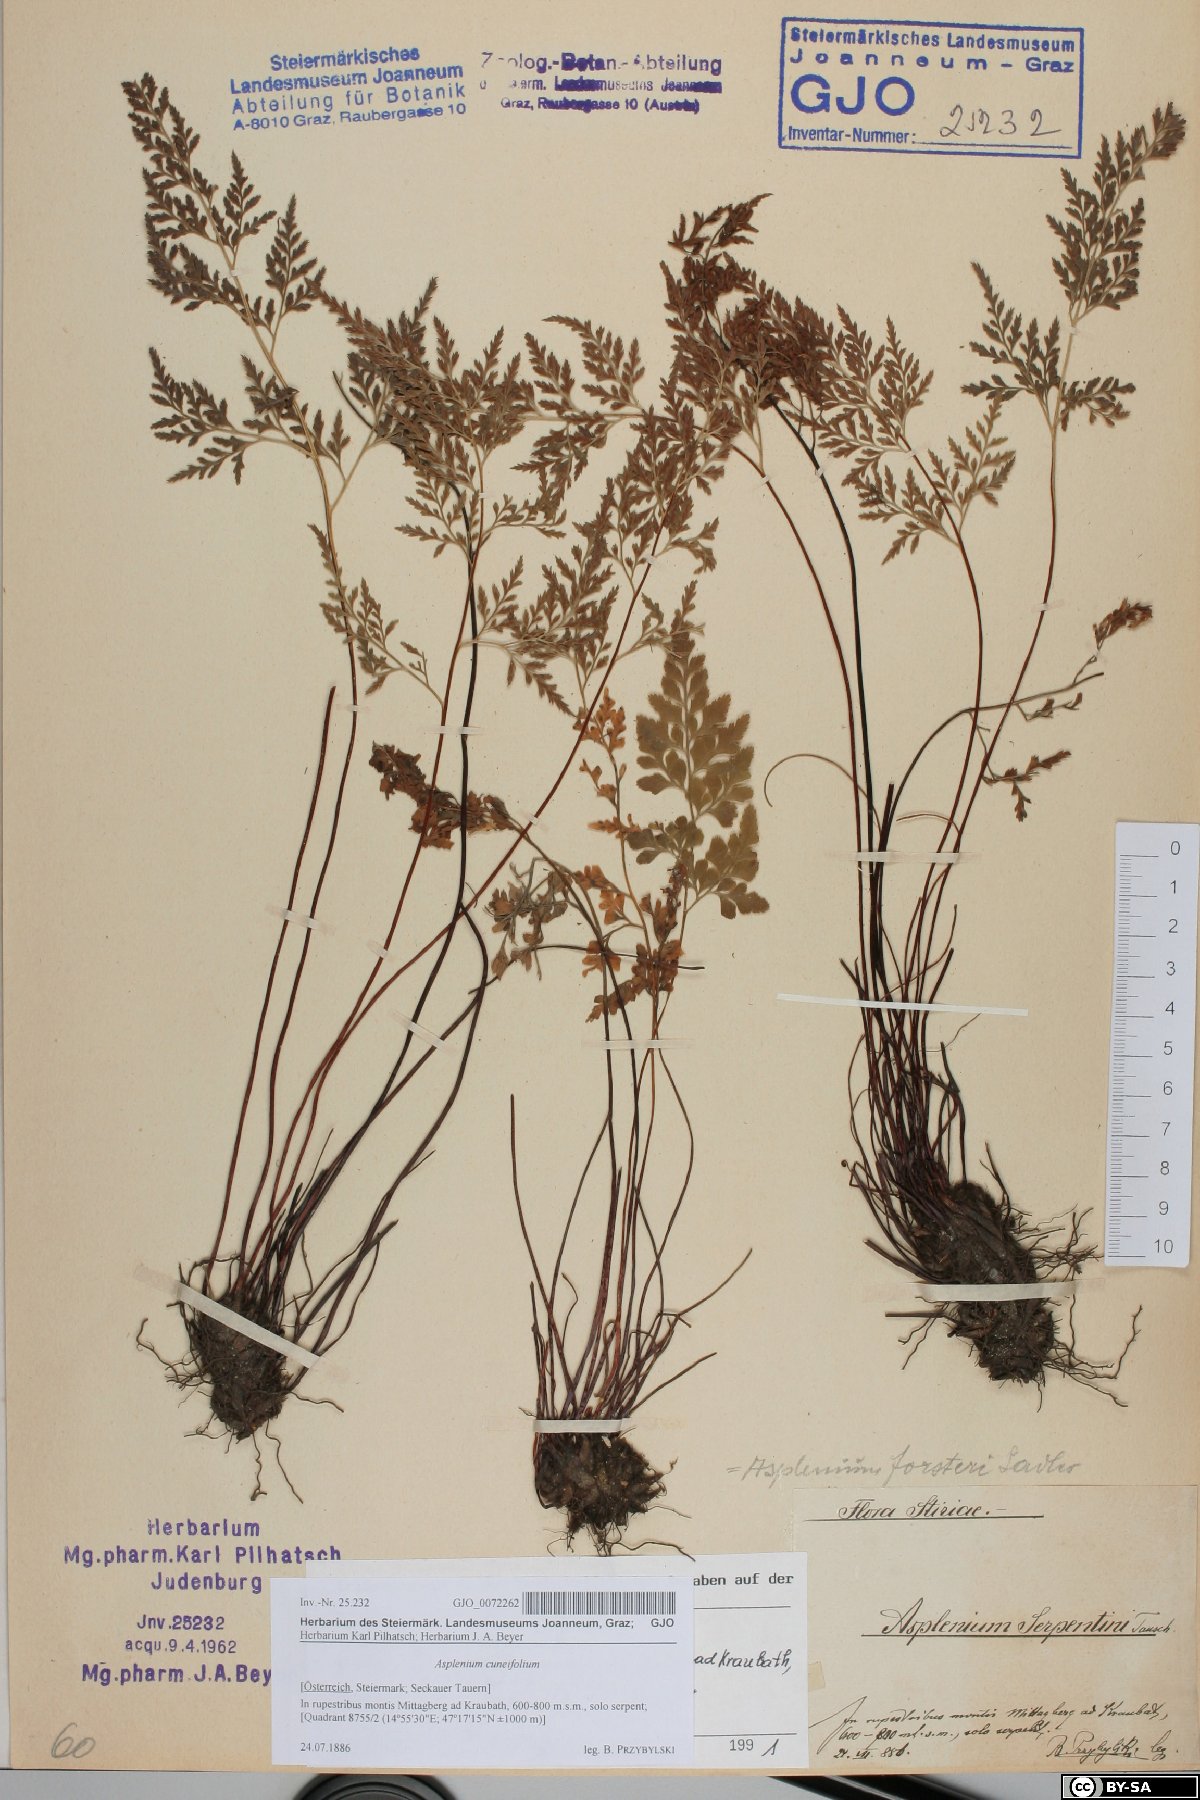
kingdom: Plantae
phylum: Tracheophyta
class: Polypodiopsida
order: Polypodiales
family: Aspleniaceae
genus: Asplenium
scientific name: Asplenium cuneifolium
